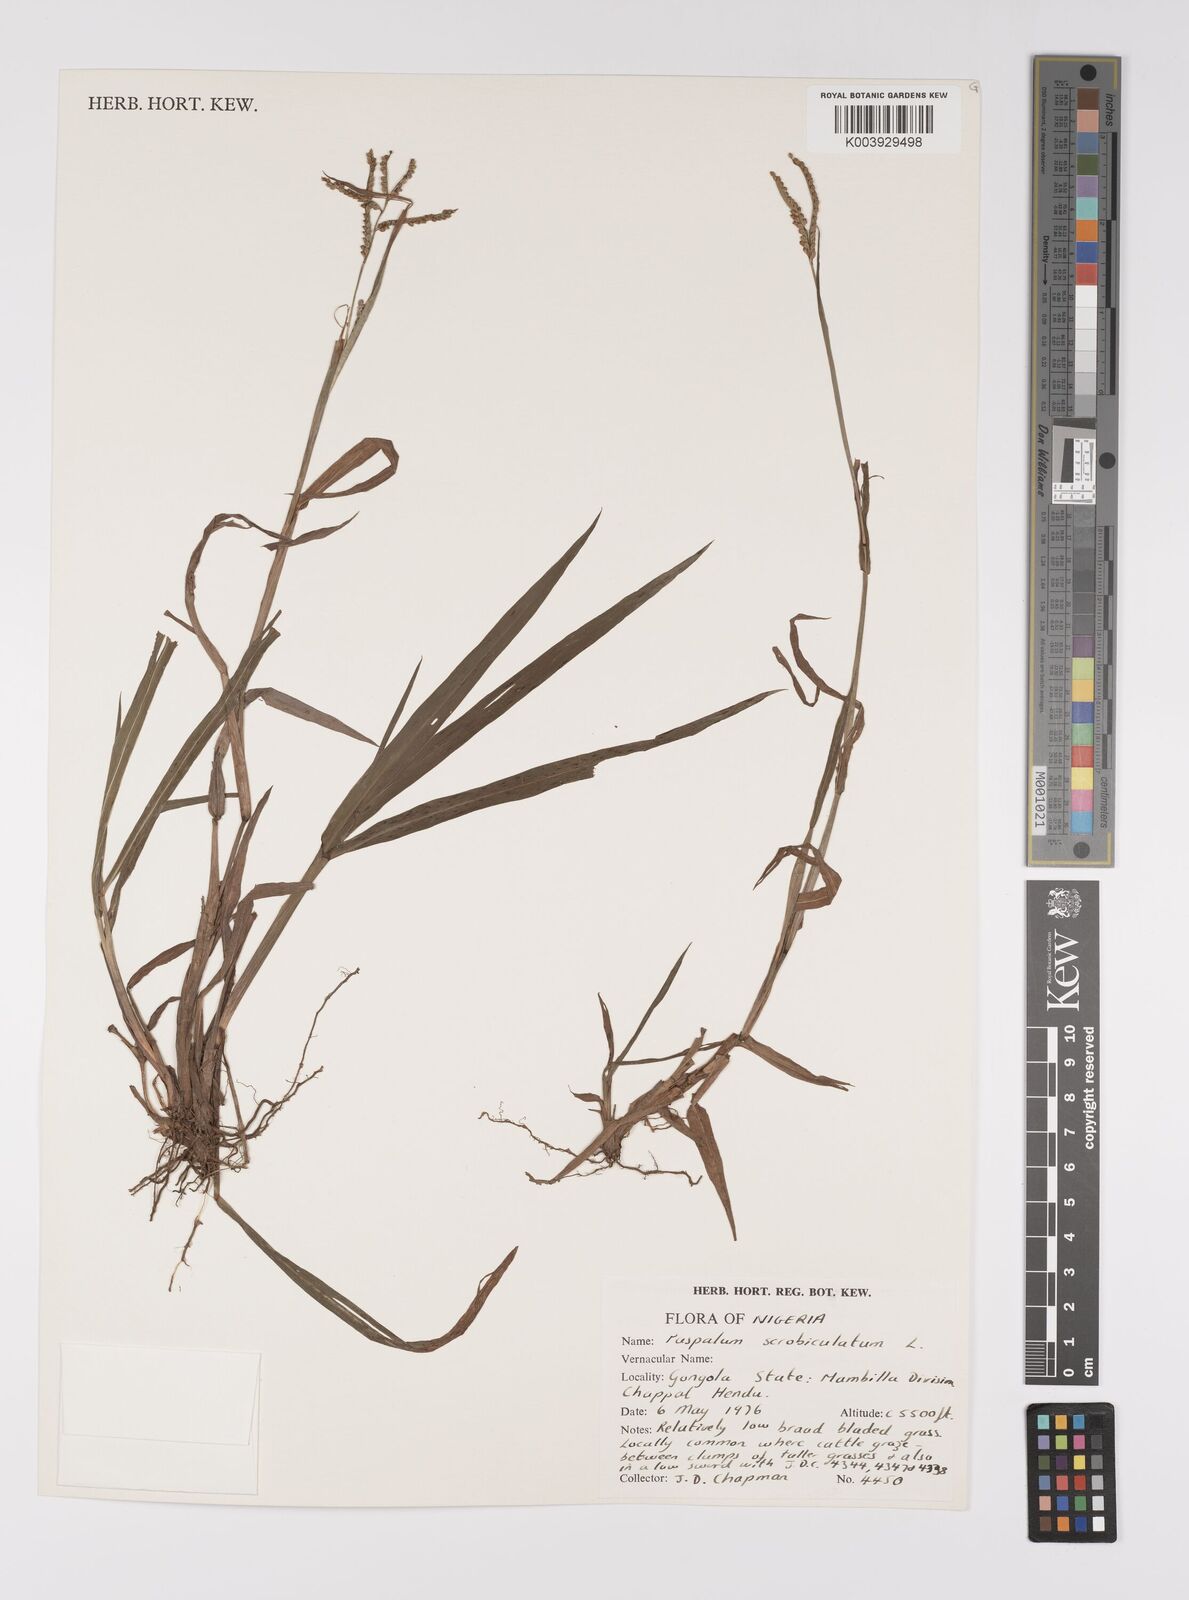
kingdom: Plantae
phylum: Tracheophyta
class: Liliopsida
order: Poales
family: Poaceae
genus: Paspalum
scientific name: Paspalum scrobiculatum
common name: Kodo millet
